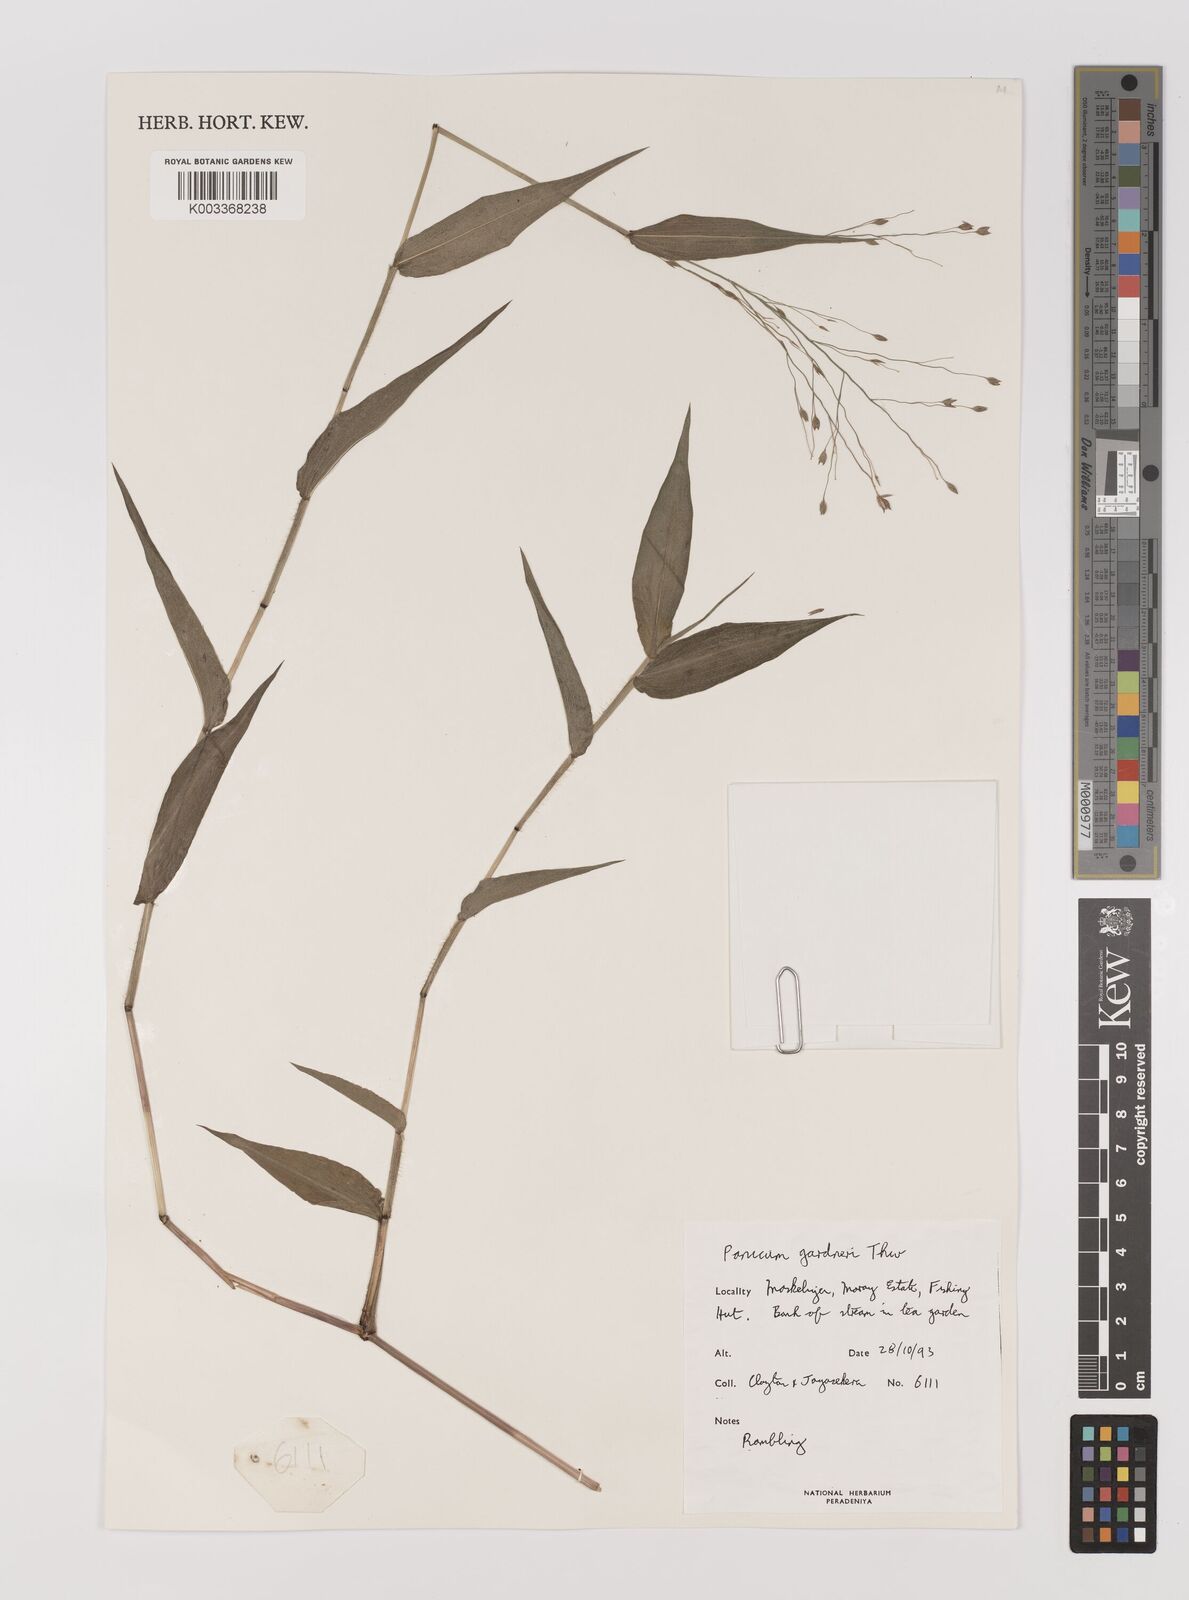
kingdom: Plantae
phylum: Tracheophyta
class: Liliopsida
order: Poales
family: Poaceae
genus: Panicum
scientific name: Panicum gardneri
